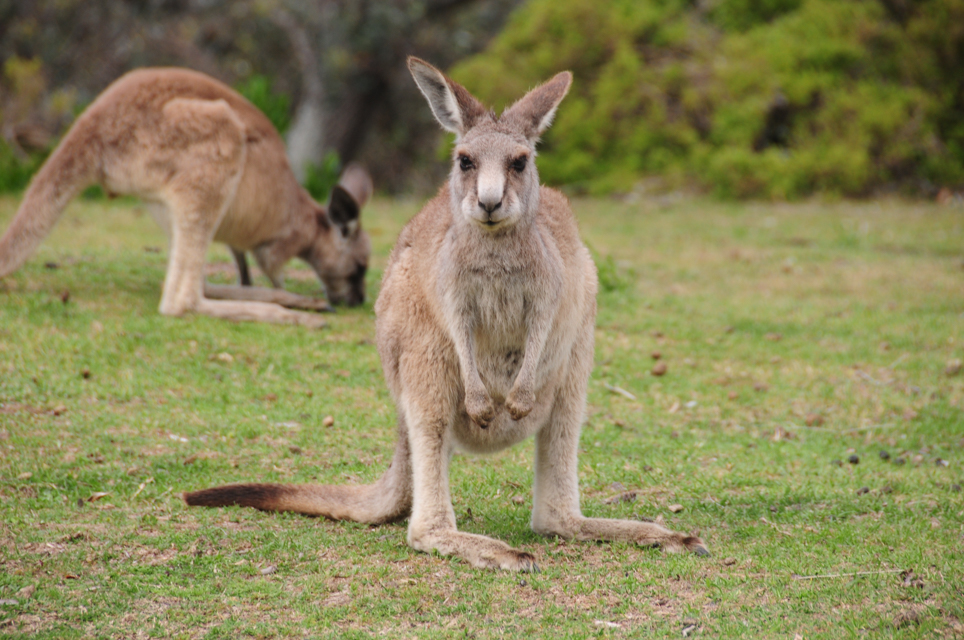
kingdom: Animalia
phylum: Chordata
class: Mammalia
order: Diprotodontia
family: Macropodidae
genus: Macropus
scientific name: Macropus giganteus
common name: Eastern grey kangaroo
